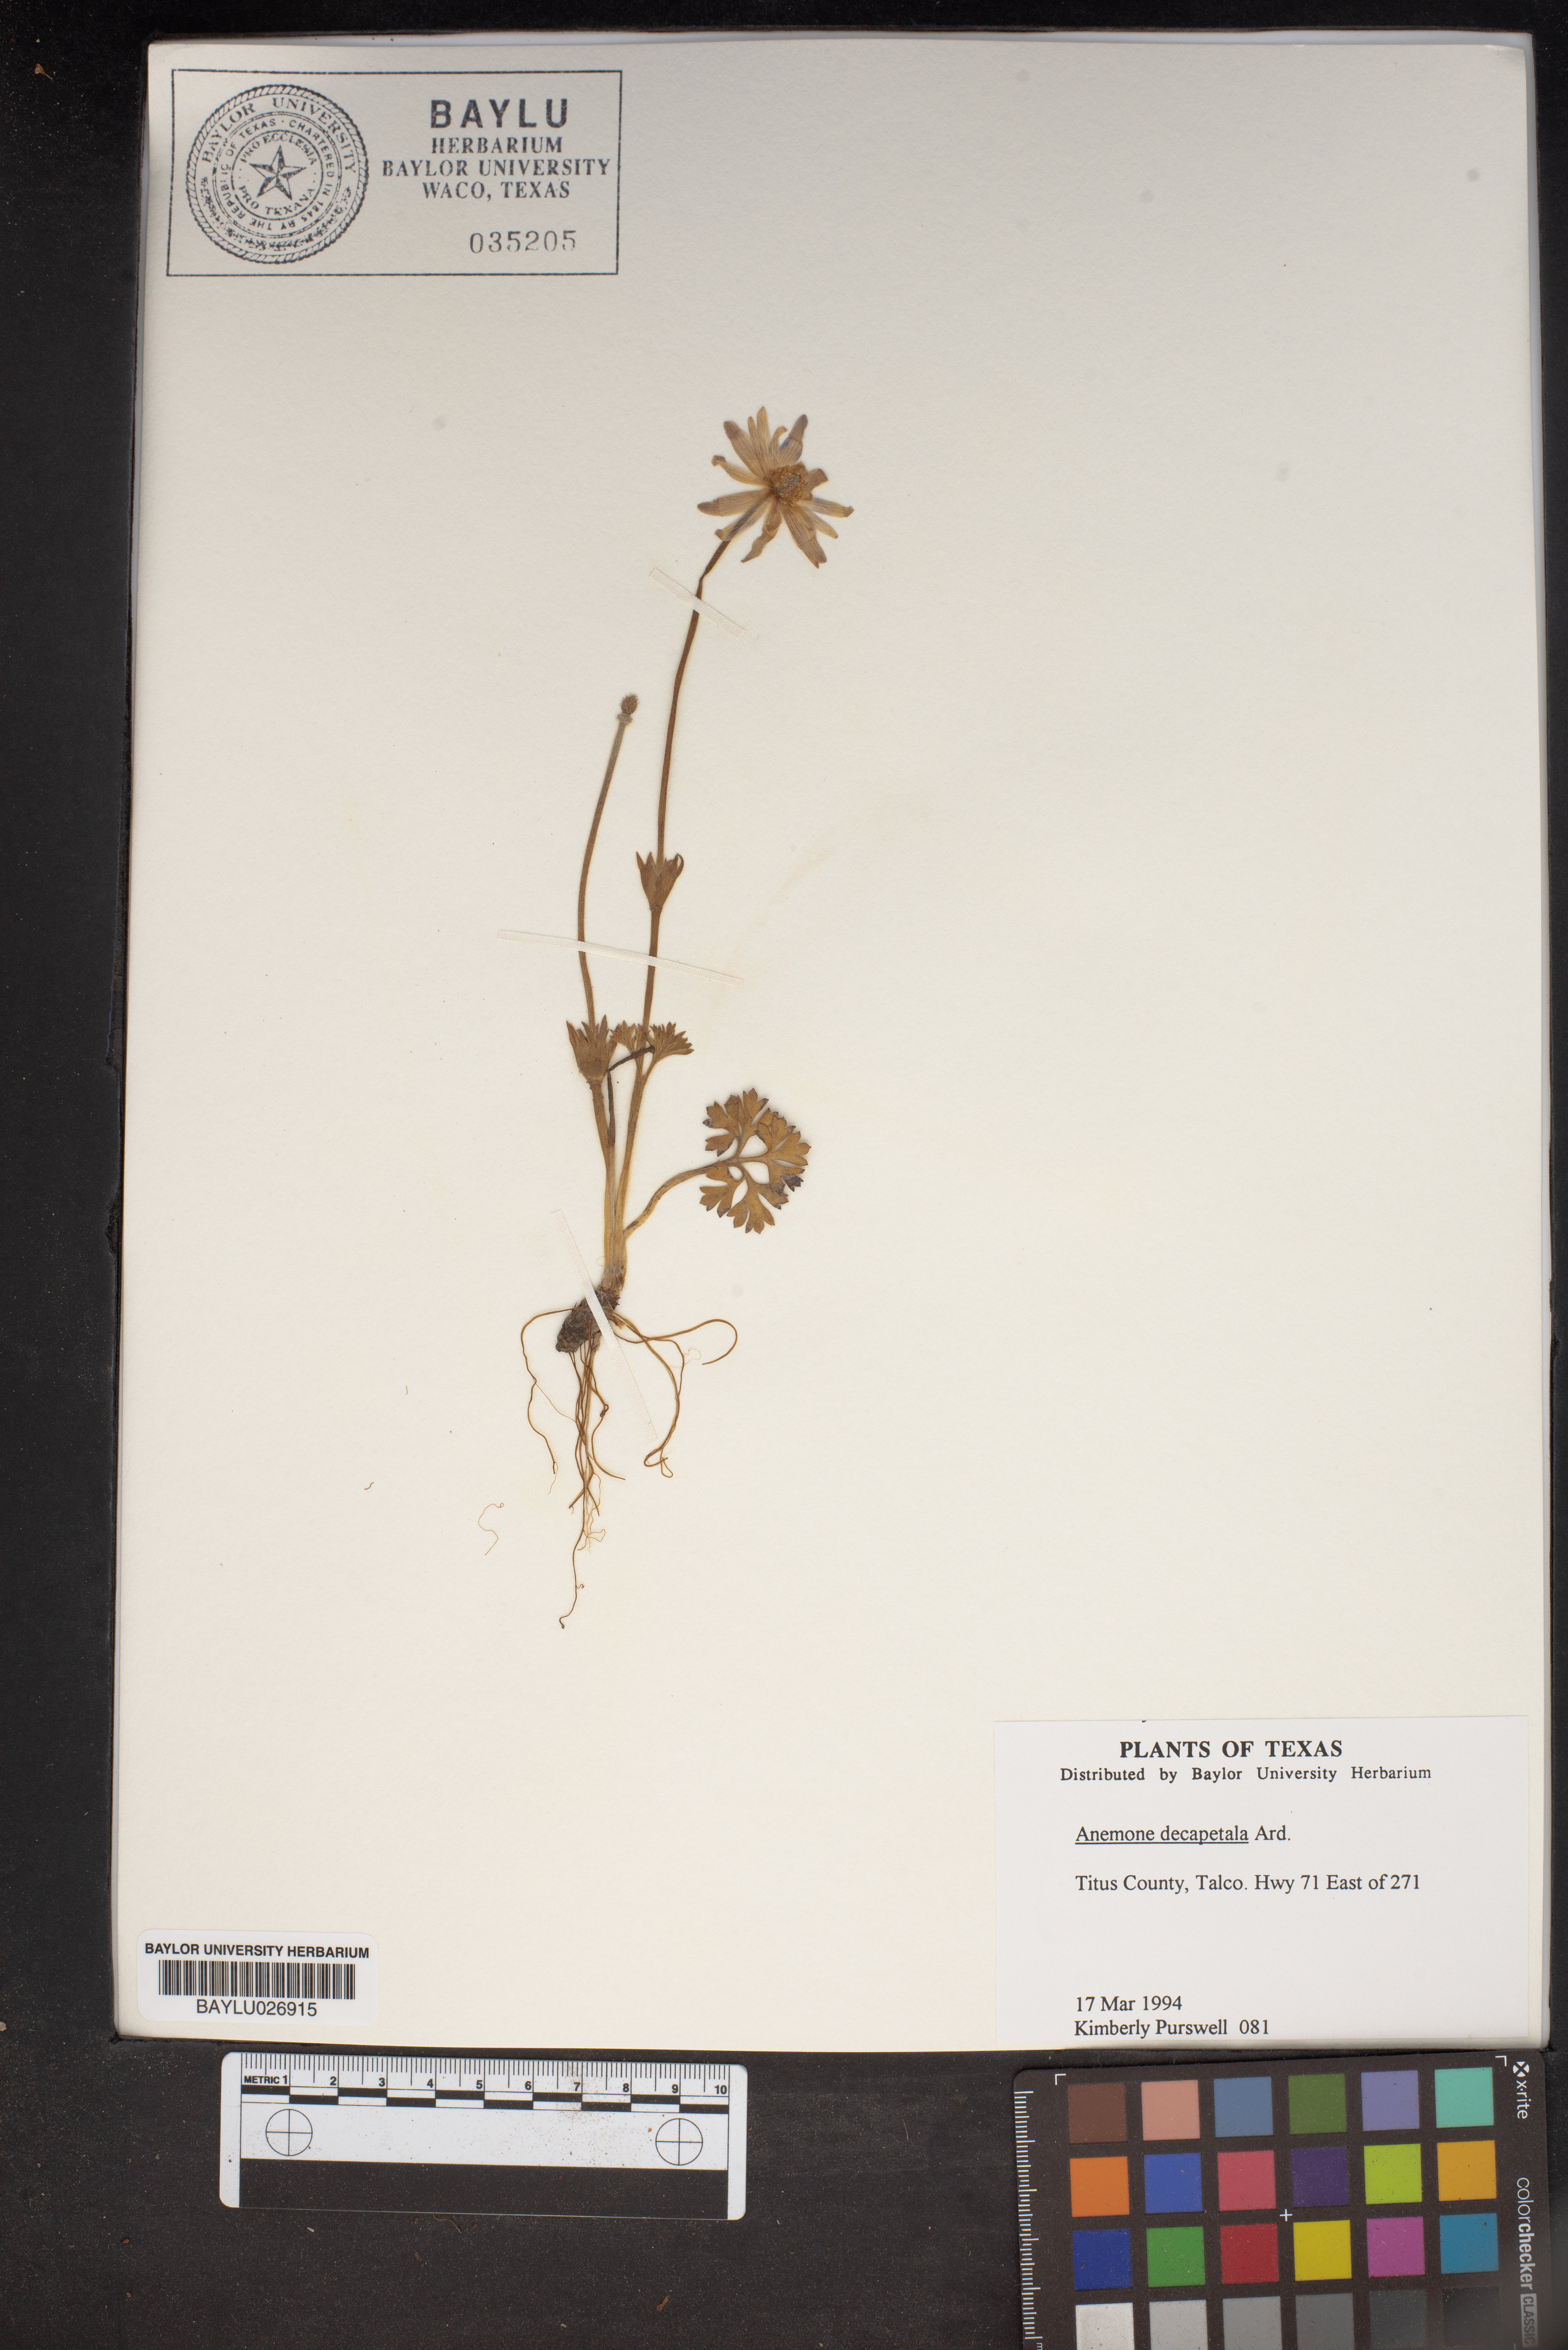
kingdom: Plantae
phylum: Tracheophyta
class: Magnoliopsida
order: Ranunculales
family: Ranunculaceae
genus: Anemone
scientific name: Anemone decapetala
